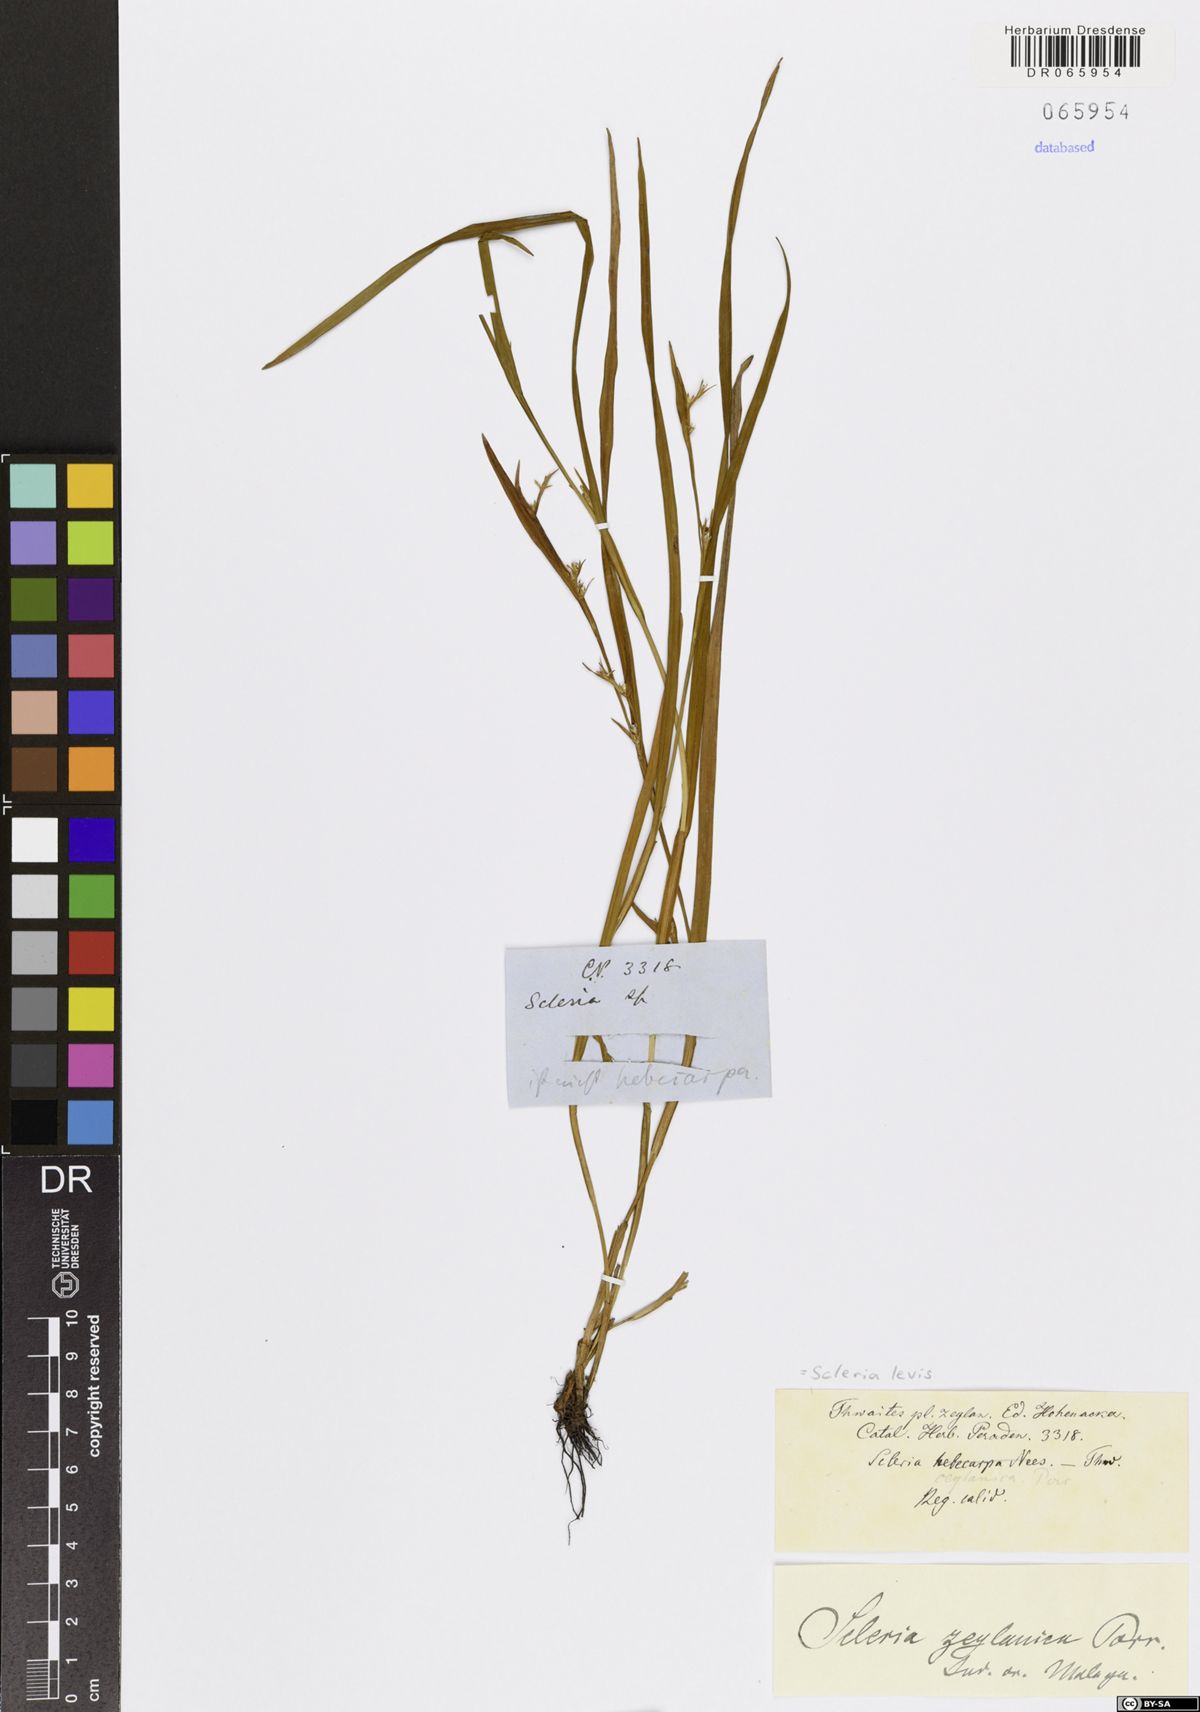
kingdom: Plantae
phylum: Tracheophyta
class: Liliopsida
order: Poales
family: Cyperaceae
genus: Scleria
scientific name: Scleria levis
